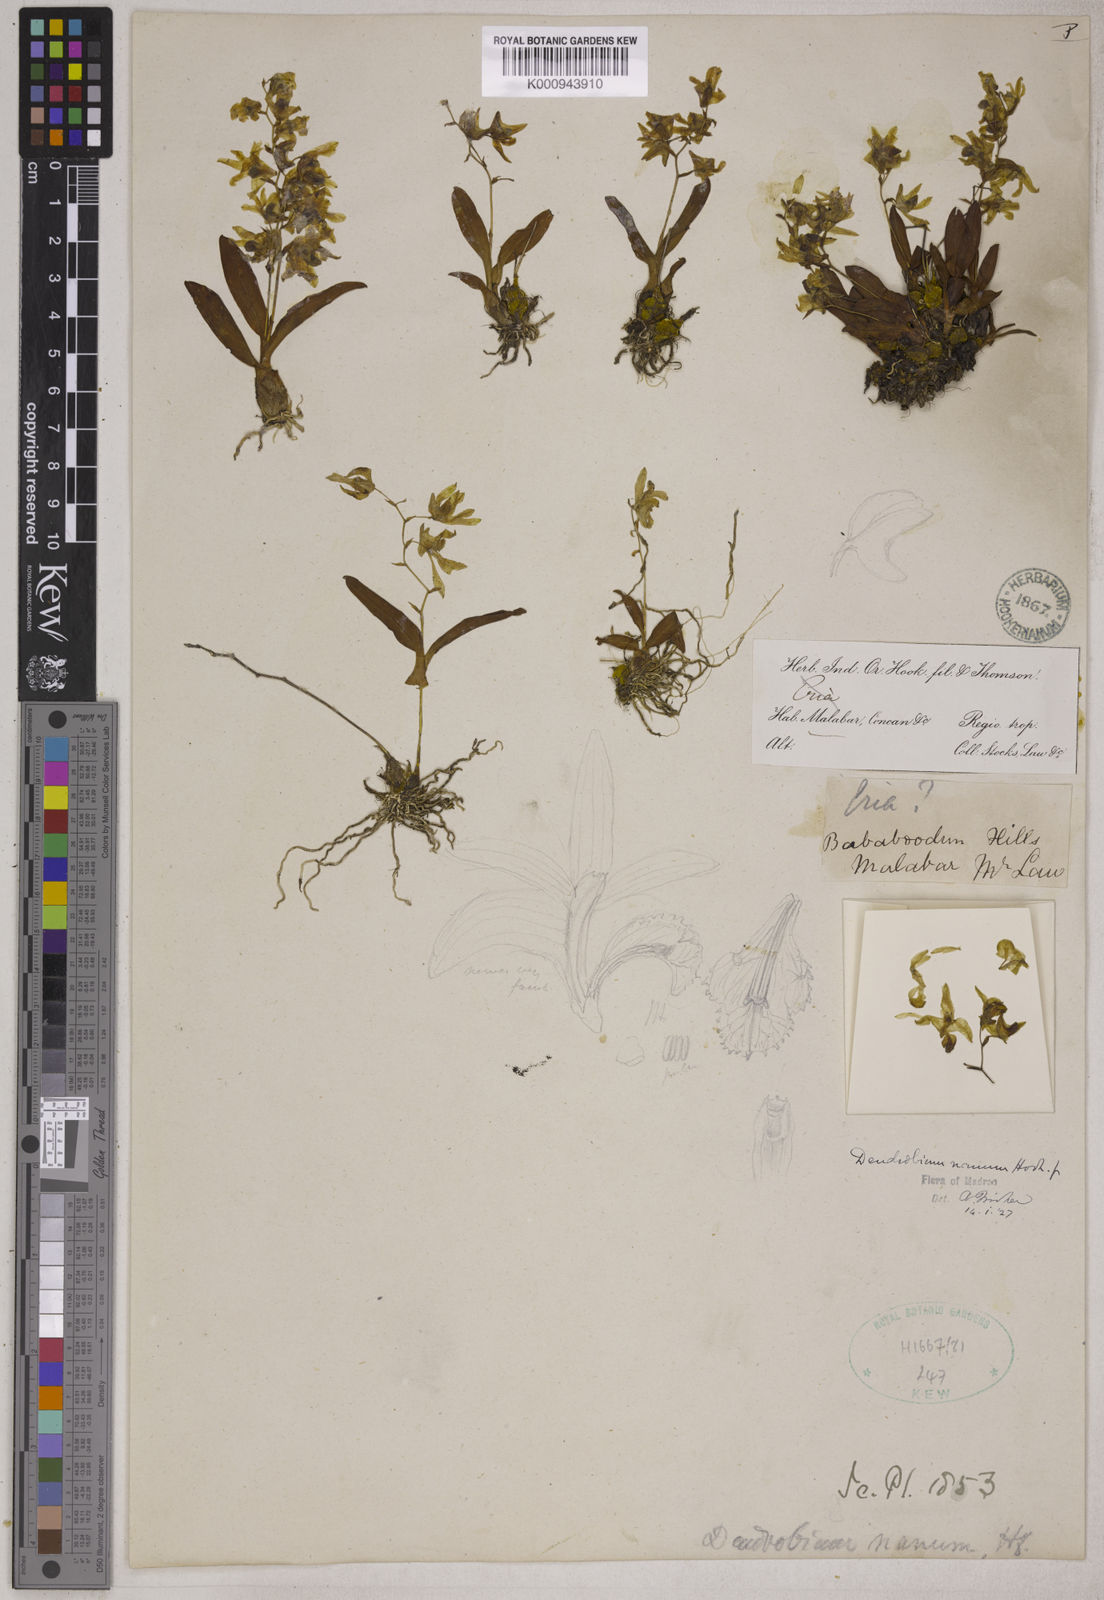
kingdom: Plantae
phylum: Tracheophyta
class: Liliopsida
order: Asparagales
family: Orchidaceae
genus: Dendrobium
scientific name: Dendrobium nanum
